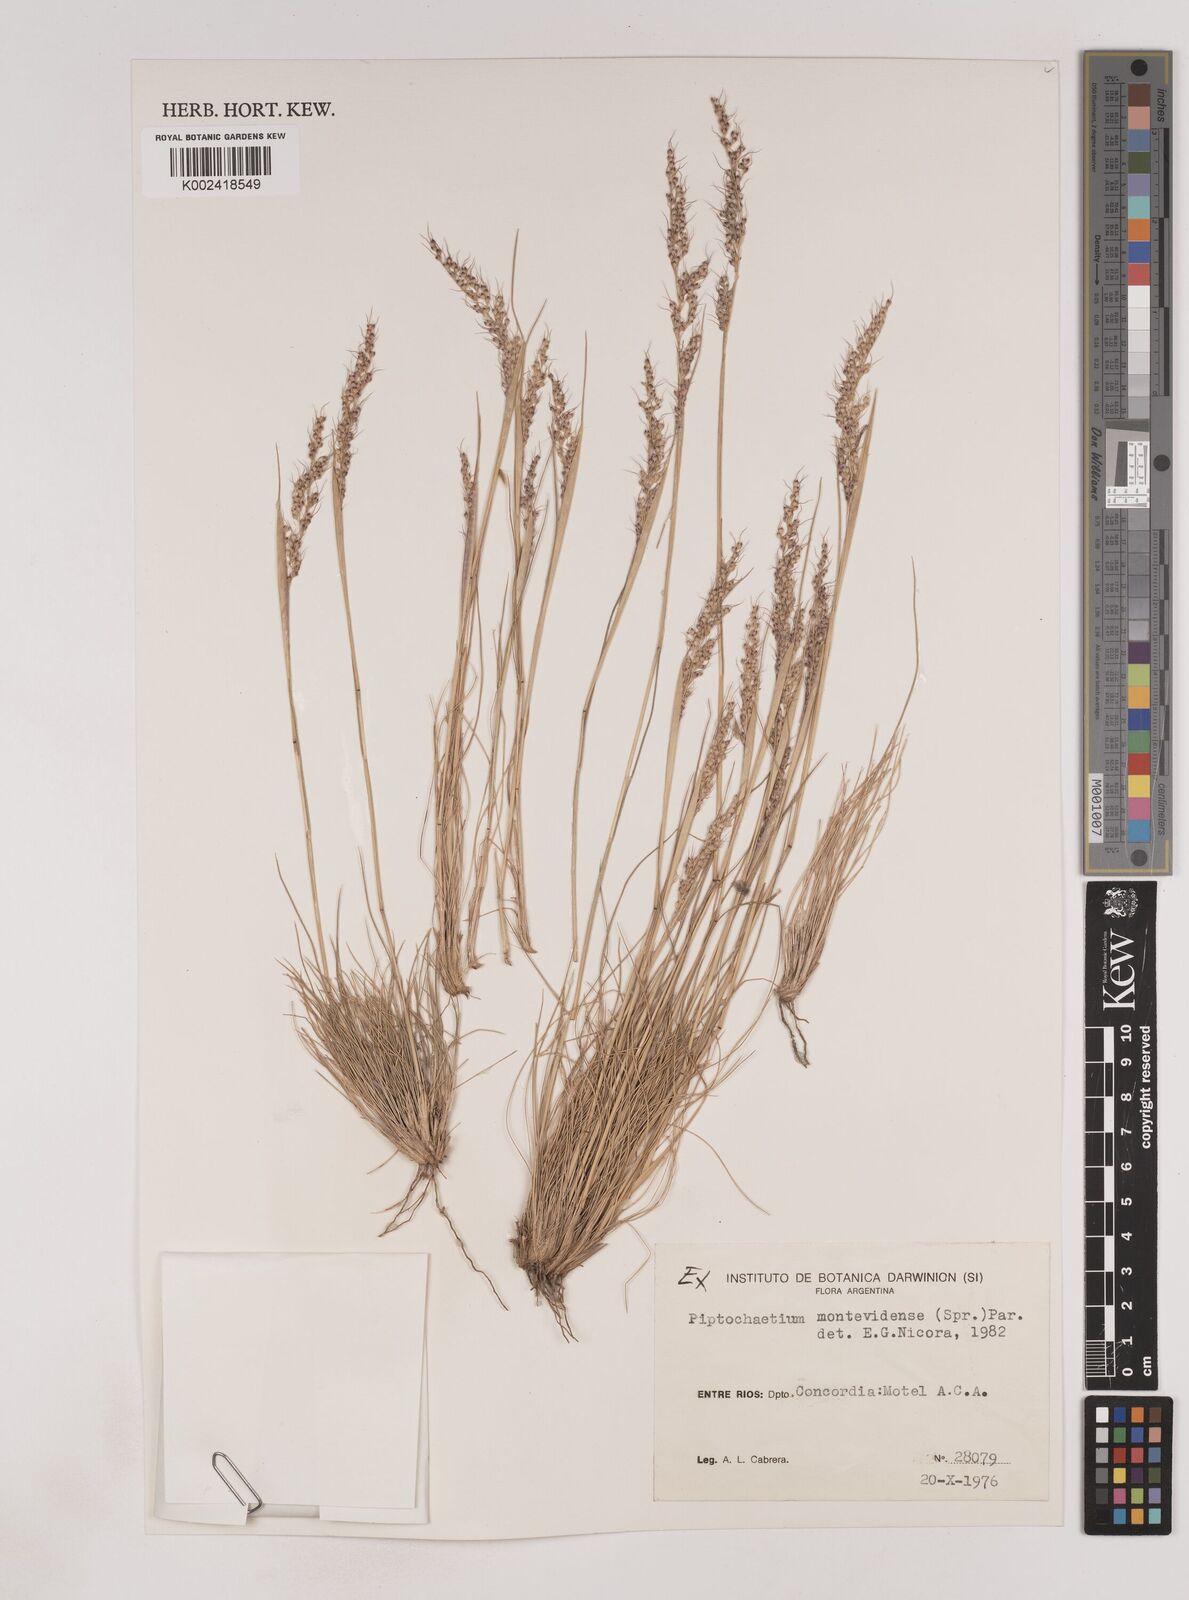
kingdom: Plantae
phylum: Tracheophyta
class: Liliopsida
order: Poales
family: Poaceae
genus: Piptochaetium
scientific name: Piptochaetium montevidense
